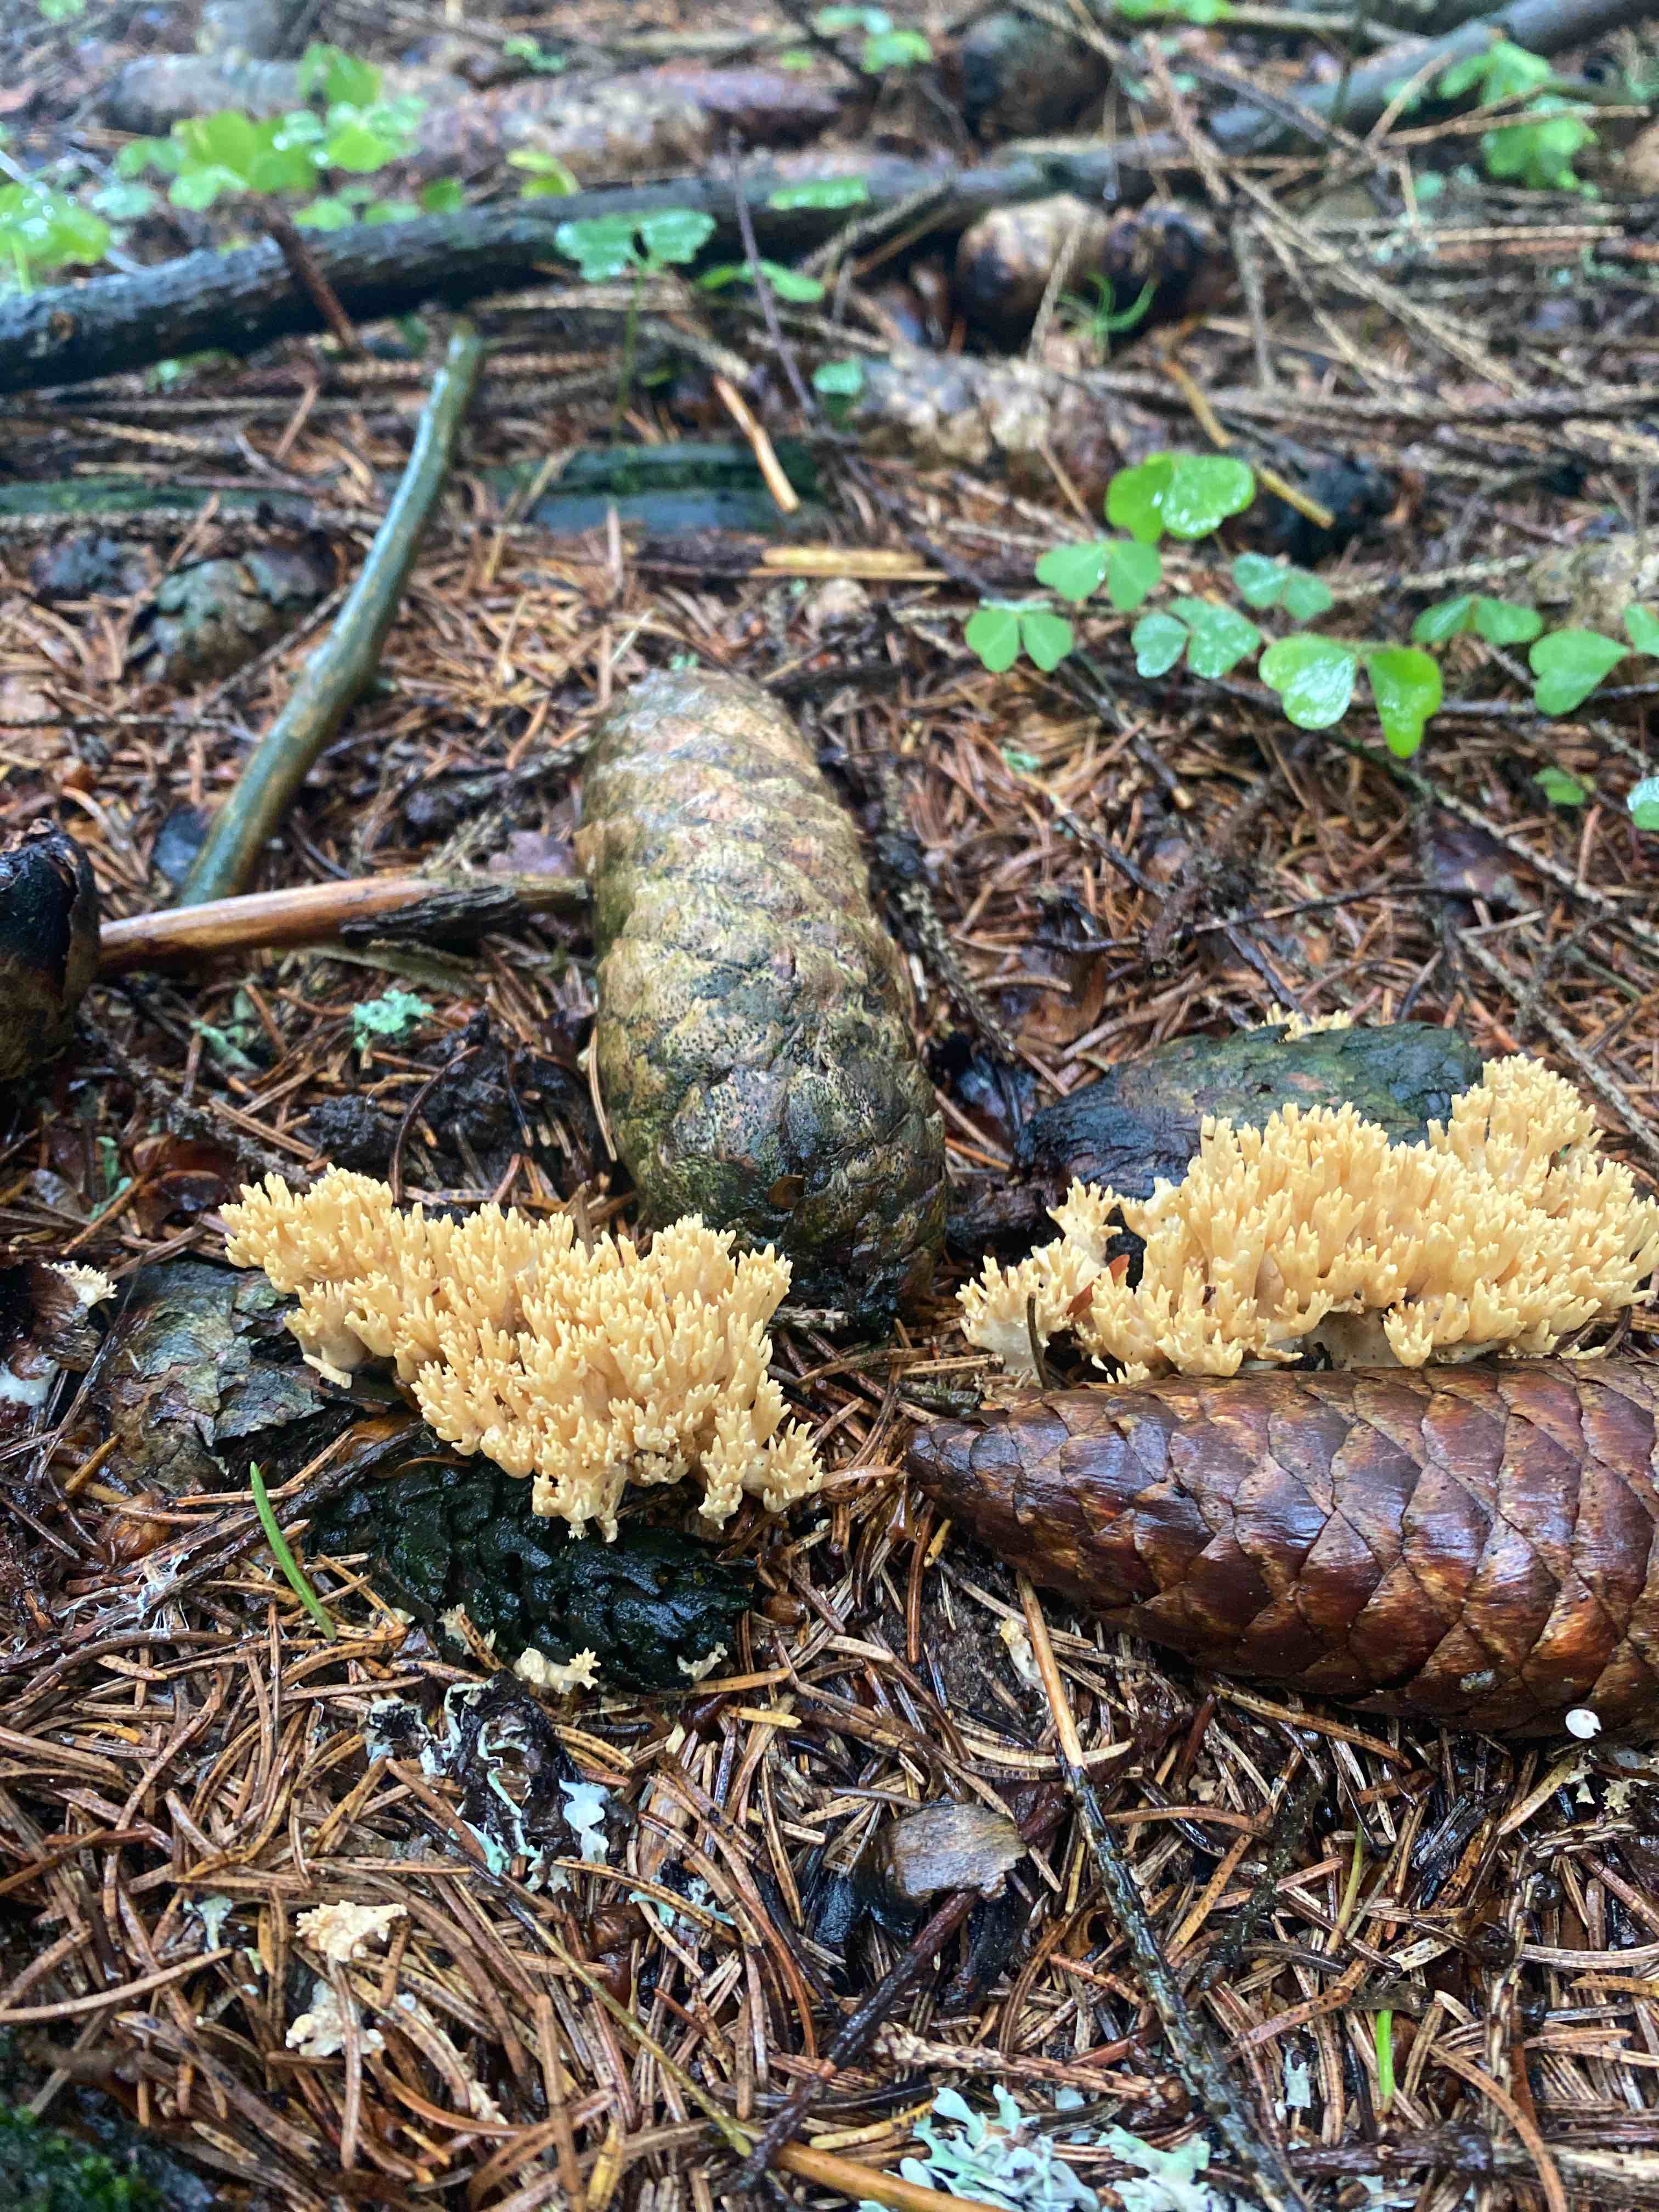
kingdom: Fungi
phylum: Basidiomycota
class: Agaricomycetes
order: Gomphales
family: Gomphaceae
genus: Phaeoclavulina
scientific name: Phaeoclavulina eumorpha
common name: gran-koralsvamp
